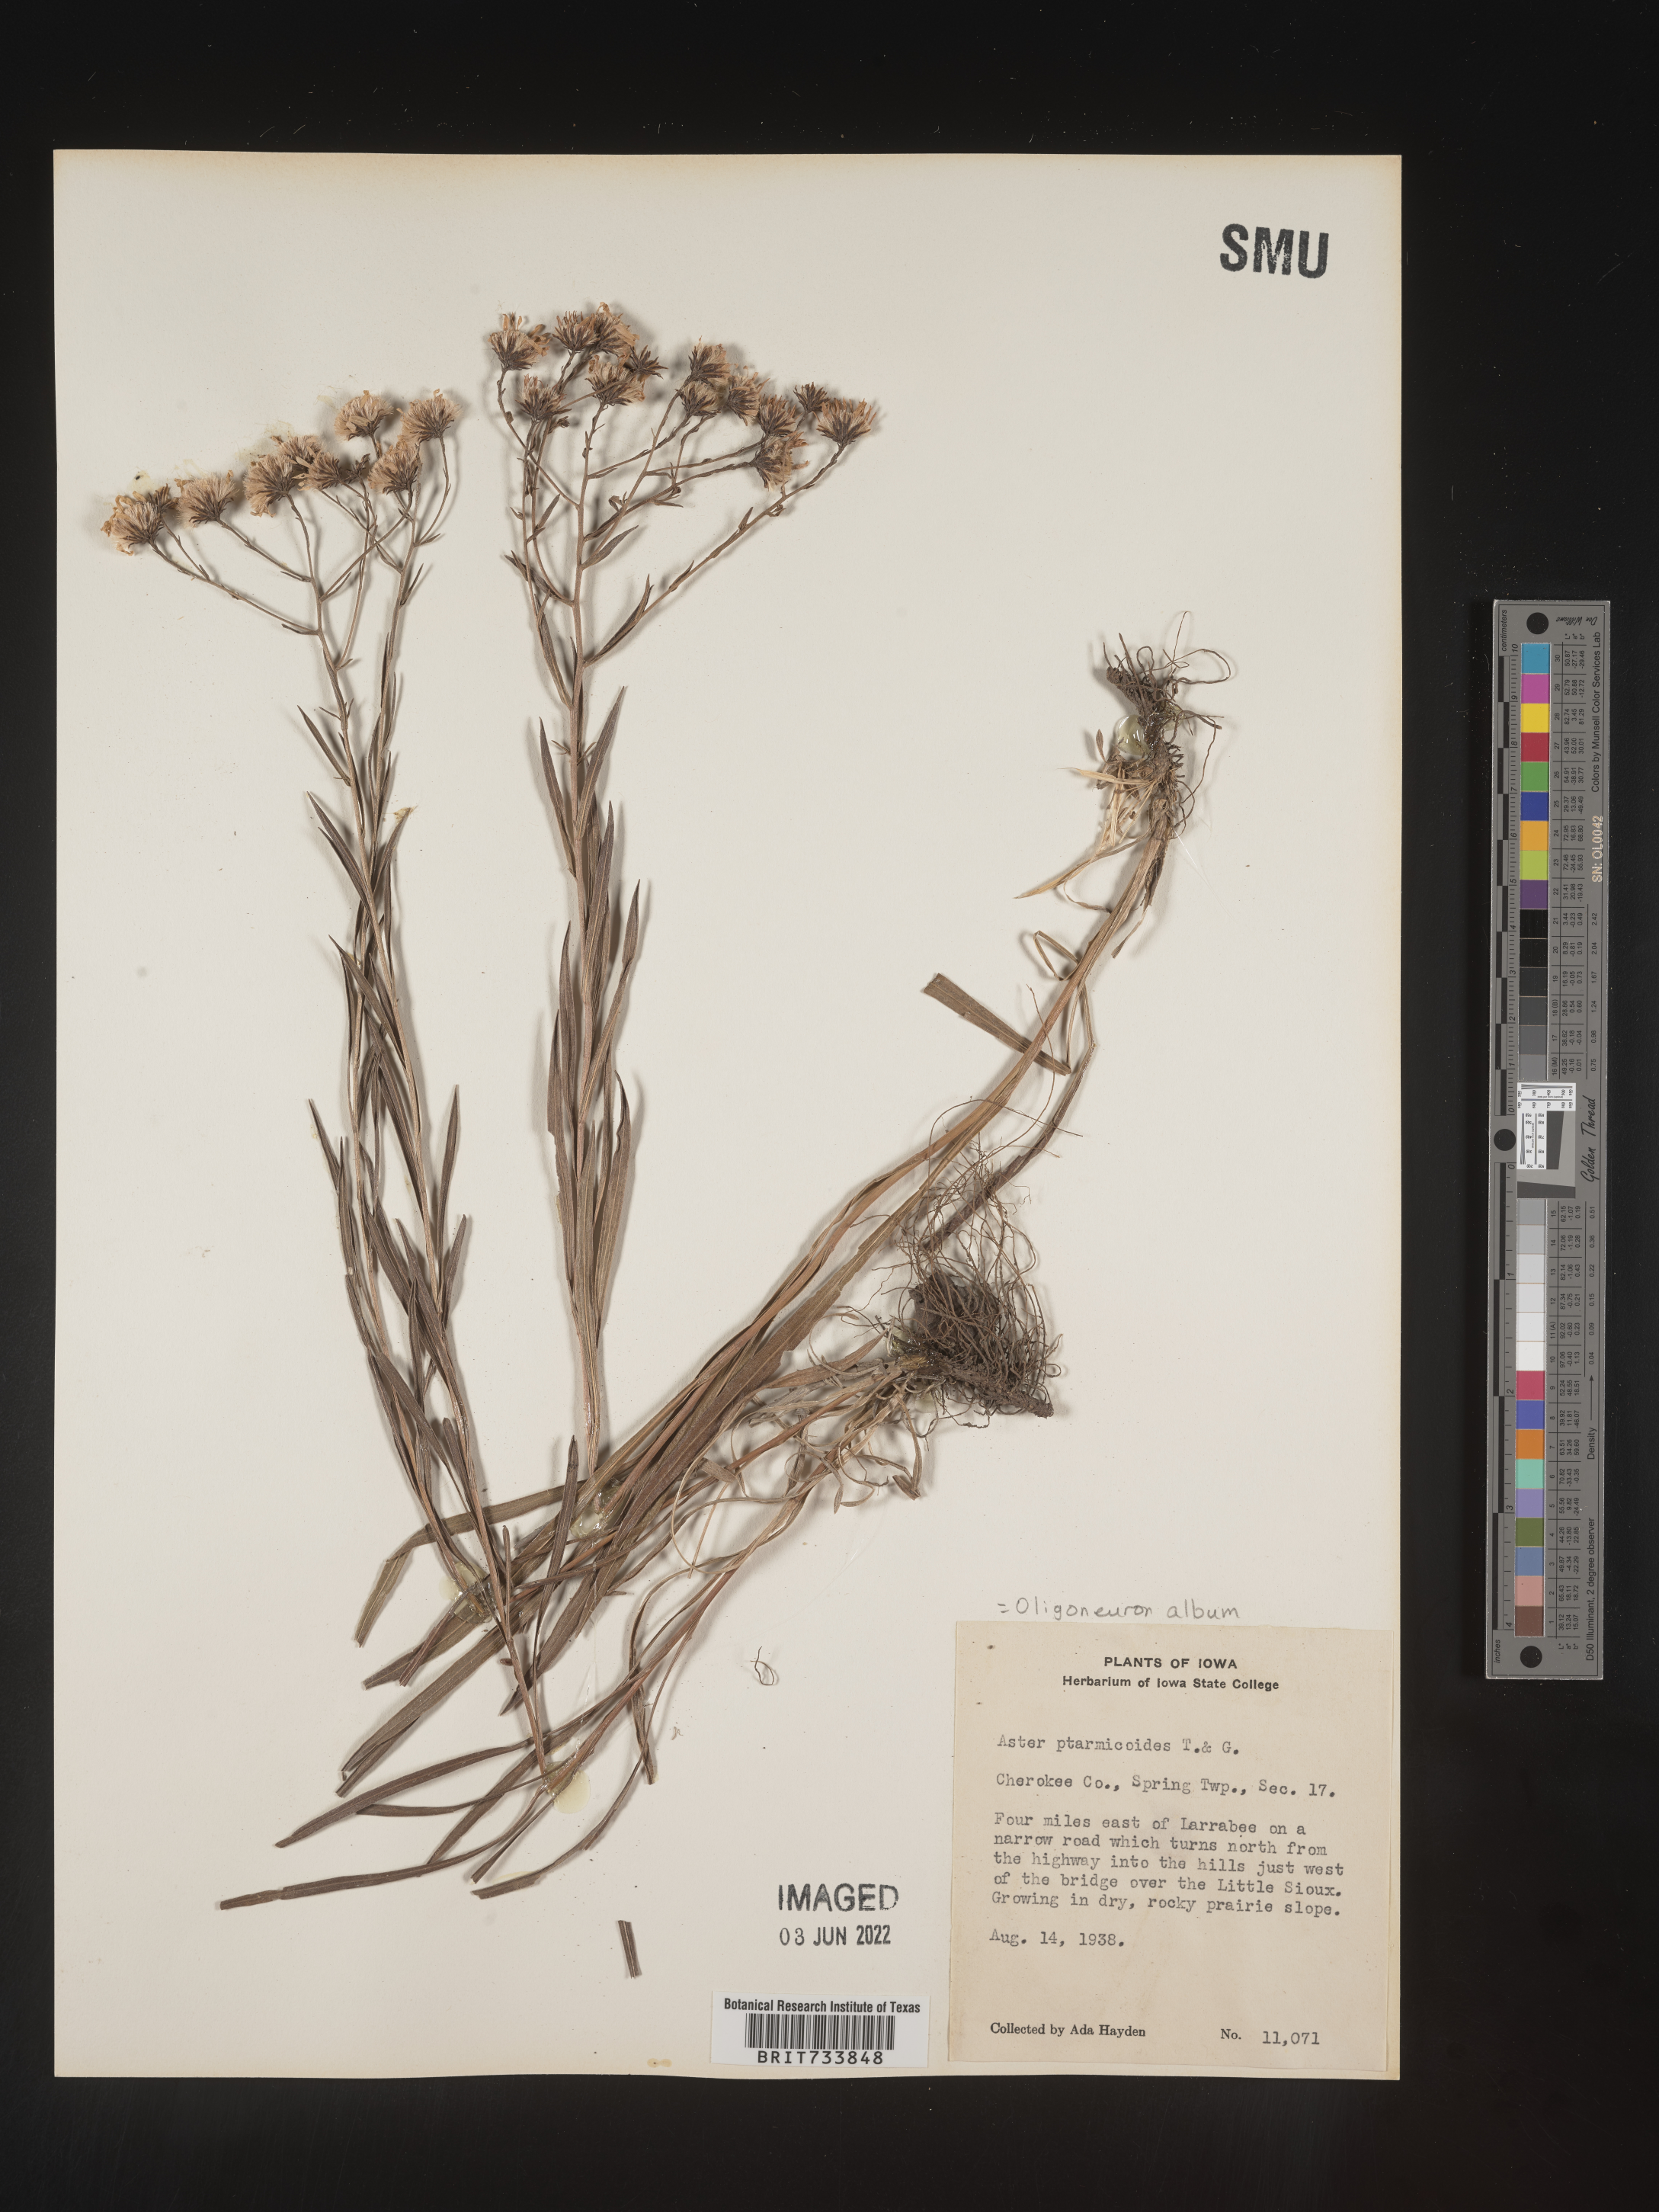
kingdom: Plantae
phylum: Tracheophyta
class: Magnoliopsida
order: Asterales
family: Asteraceae
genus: Solidago
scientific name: Solidago ptarmicoides
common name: White flat-top goldenrod
